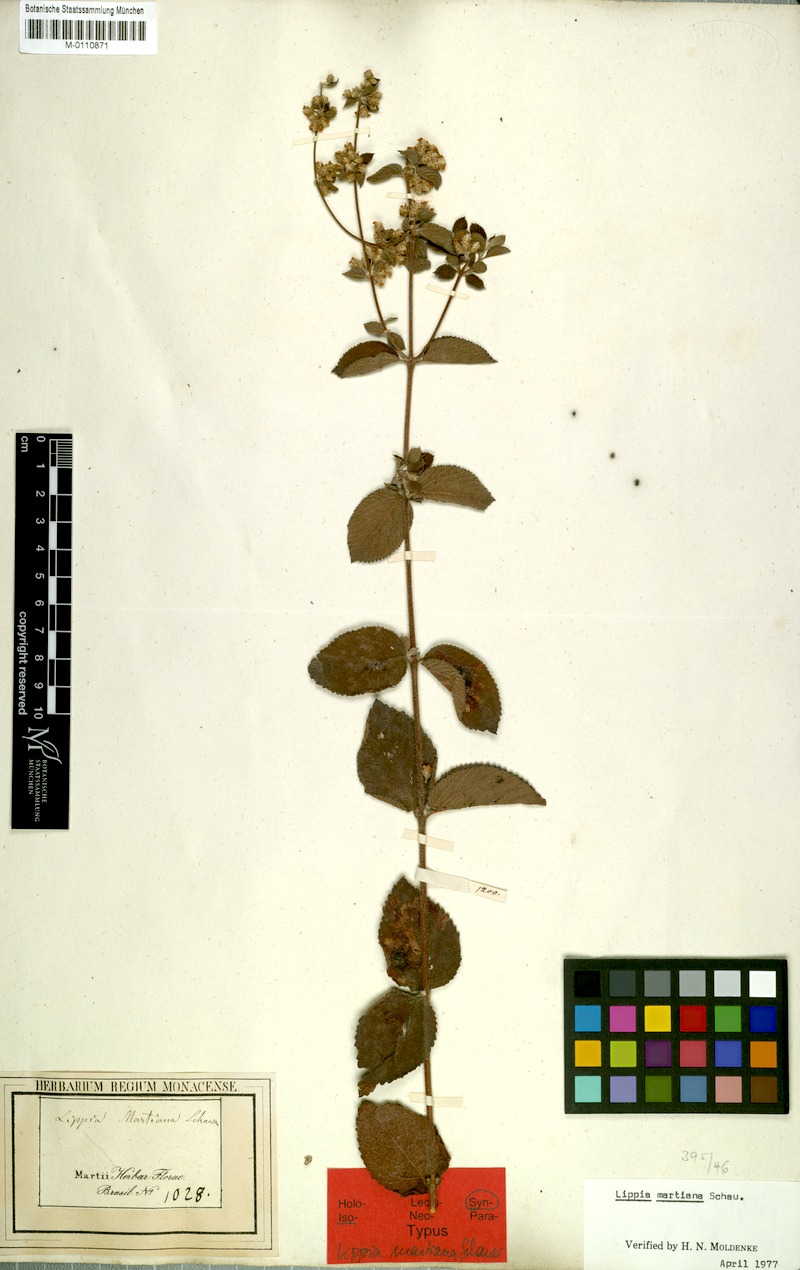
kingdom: Plantae
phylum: Tracheophyta
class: Magnoliopsida
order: Lamiales
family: Verbenaceae
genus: Lippia
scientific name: Lippia martiana
